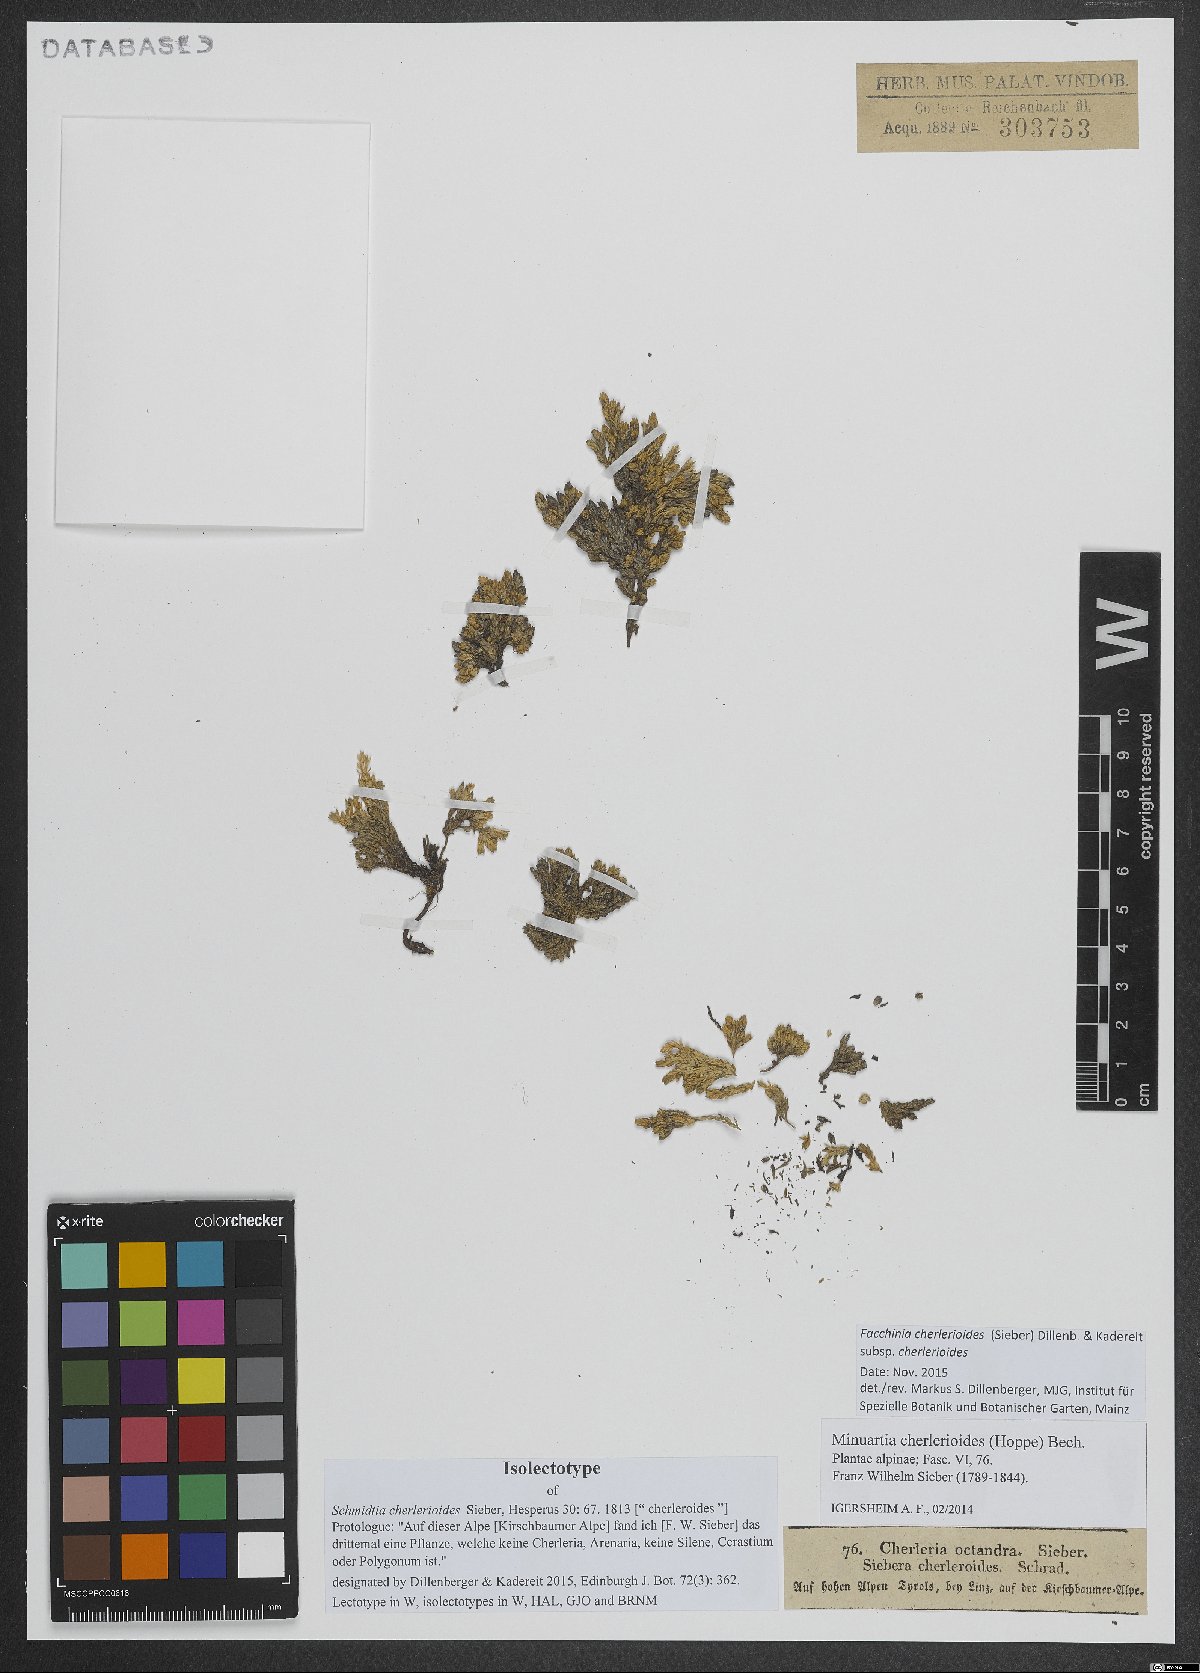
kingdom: Plantae
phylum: Tracheophyta
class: Magnoliopsida
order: Caryophyllales
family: Caryophyllaceae
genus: Facchinia
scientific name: Facchinia cherlerioides
